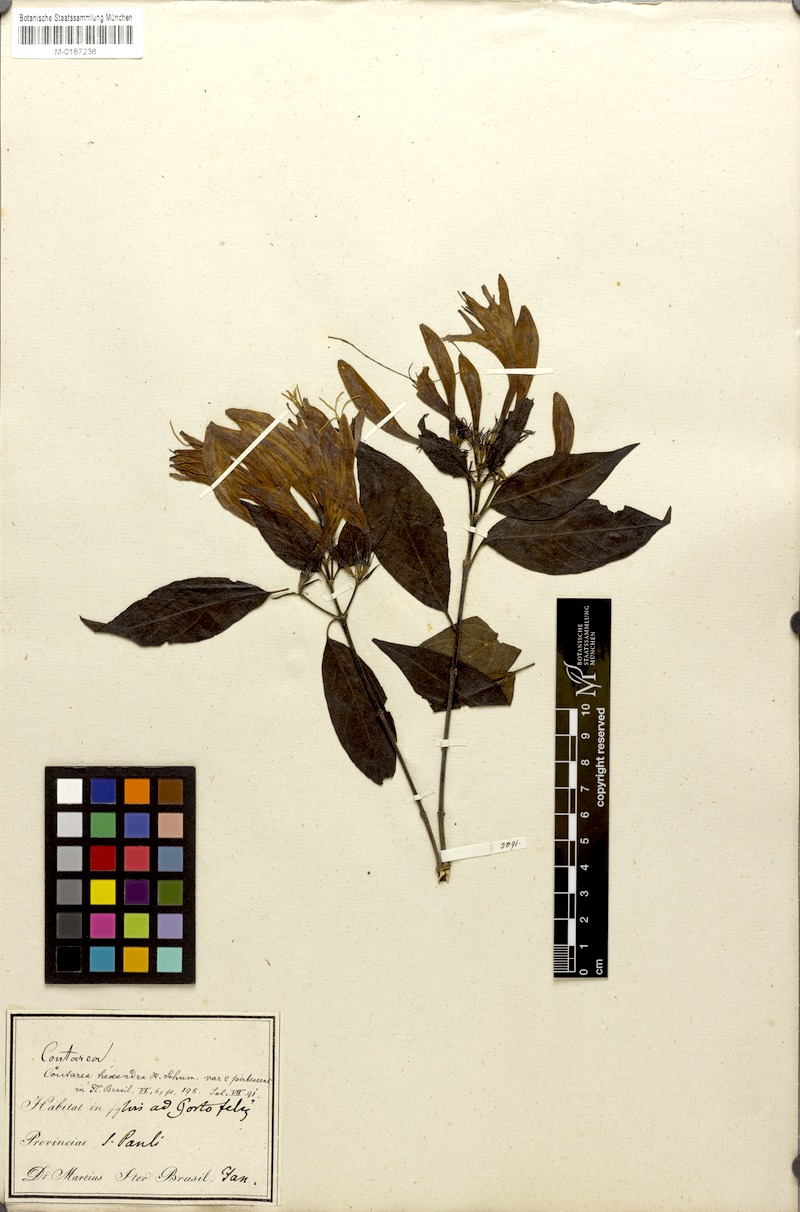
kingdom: Plantae
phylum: Tracheophyta
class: Magnoliopsida
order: Gentianales
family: Rubiaceae
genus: Coutarea
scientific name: Coutarea hexandra
